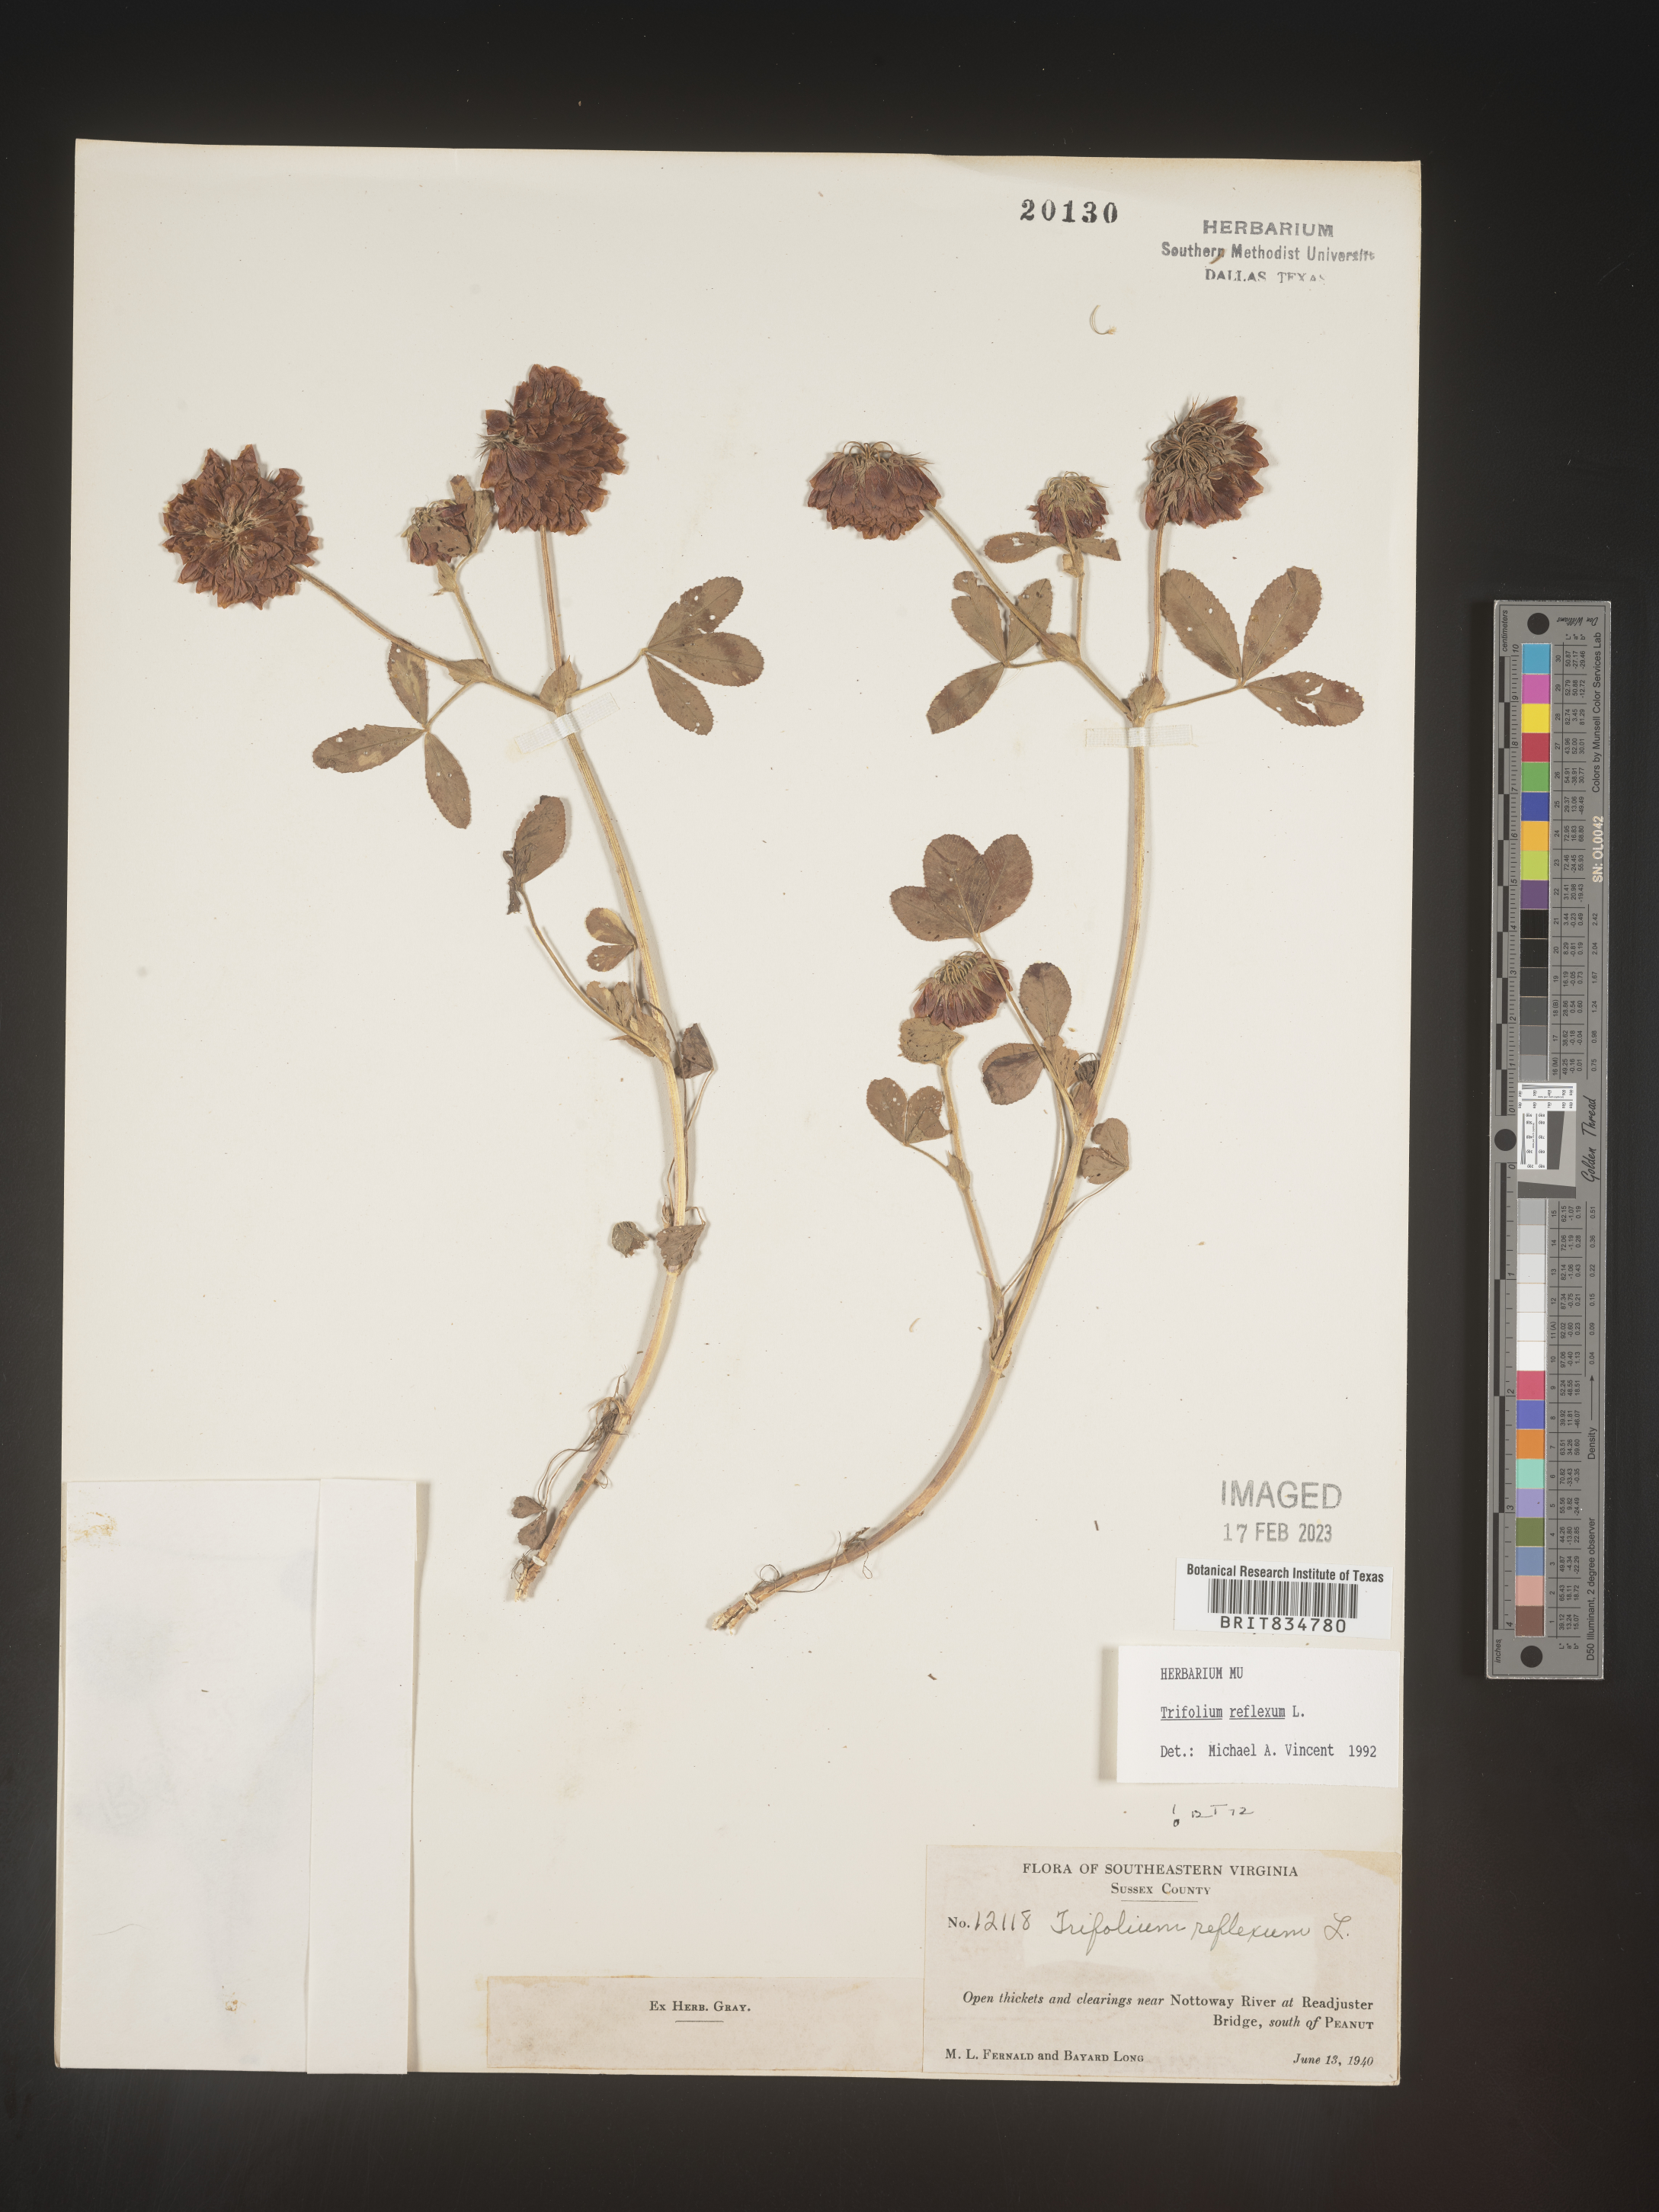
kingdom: Plantae
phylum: Tracheophyta
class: Magnoliopsida
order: Fabales
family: Fabaceae
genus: Trifolium
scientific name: Trifolium reflexum
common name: Buffalo clover
